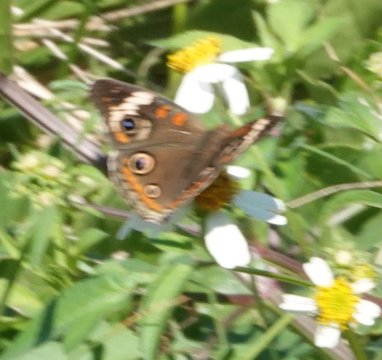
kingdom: Animalia
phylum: Arthropoda
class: Insecta
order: Lepidoptera
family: Nymphalidae
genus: Junonia
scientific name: Junonia coenia
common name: Common Buckeye
